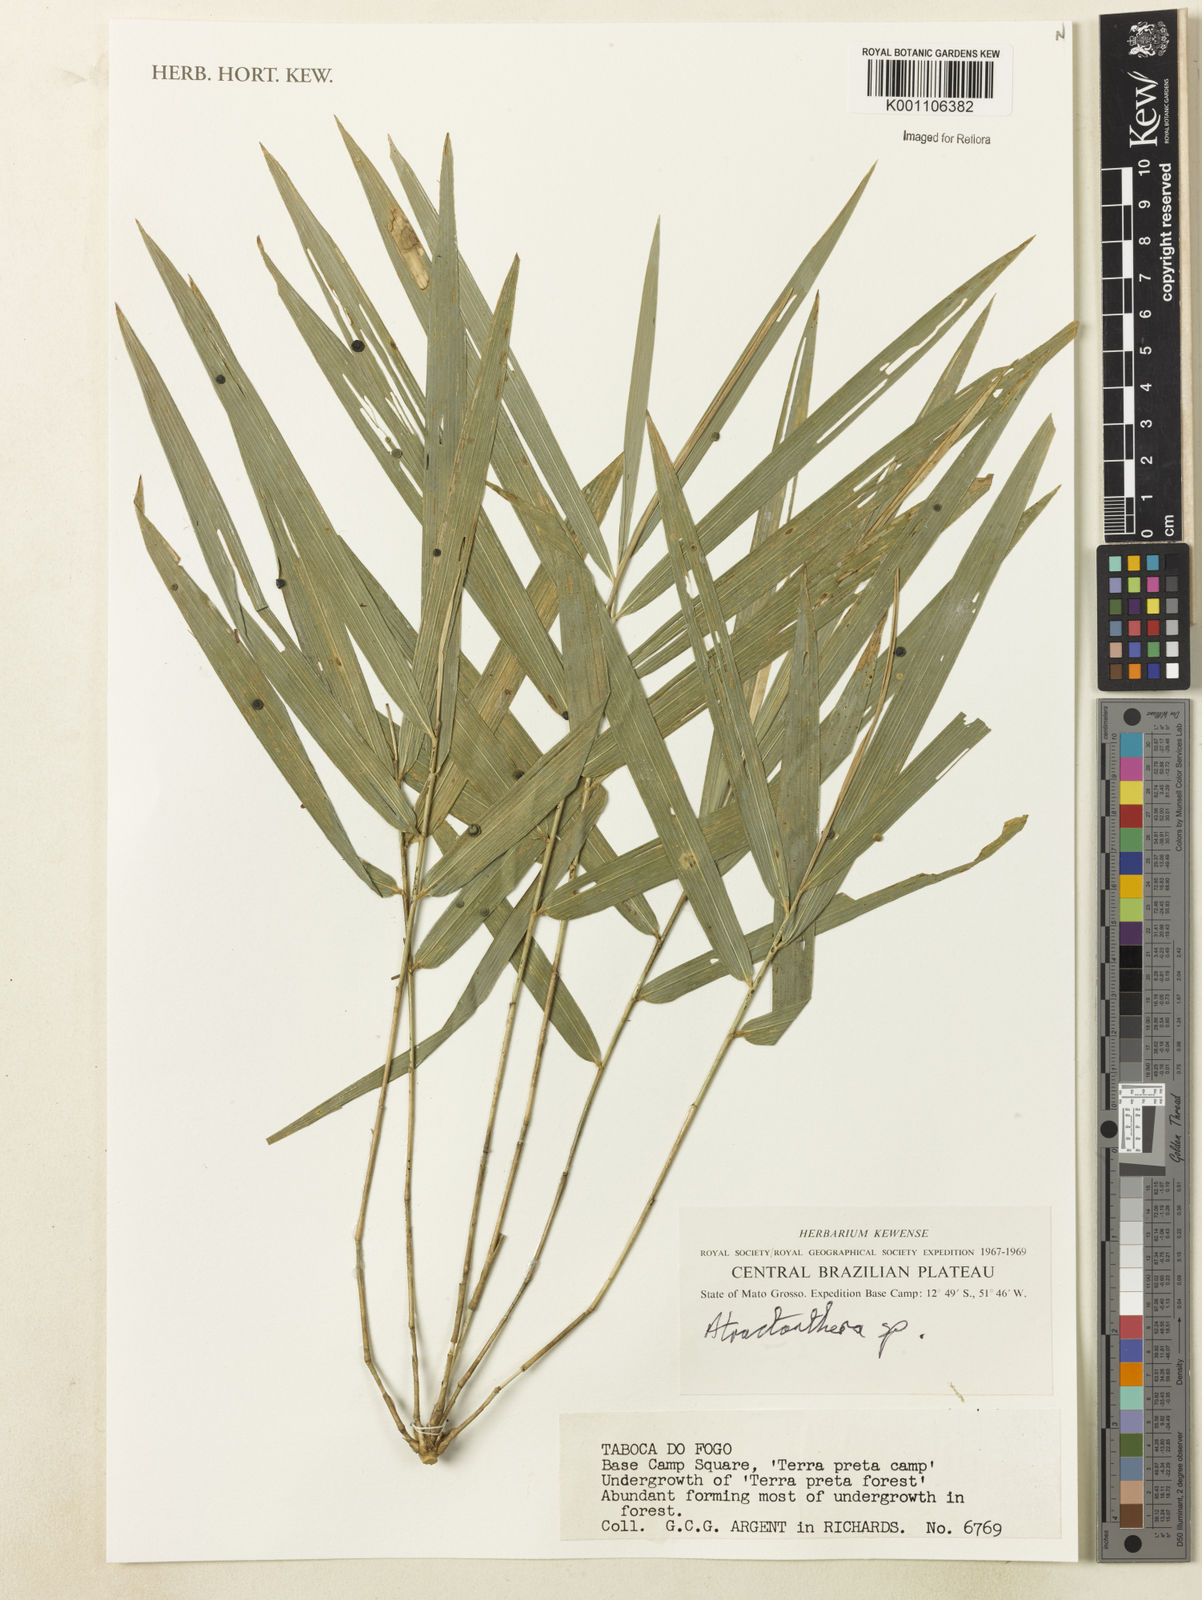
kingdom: Plantae
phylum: Tracheophyta
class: Liliopsida
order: Poales
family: Poaceae
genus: Guadua
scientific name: Guadua paniculata
